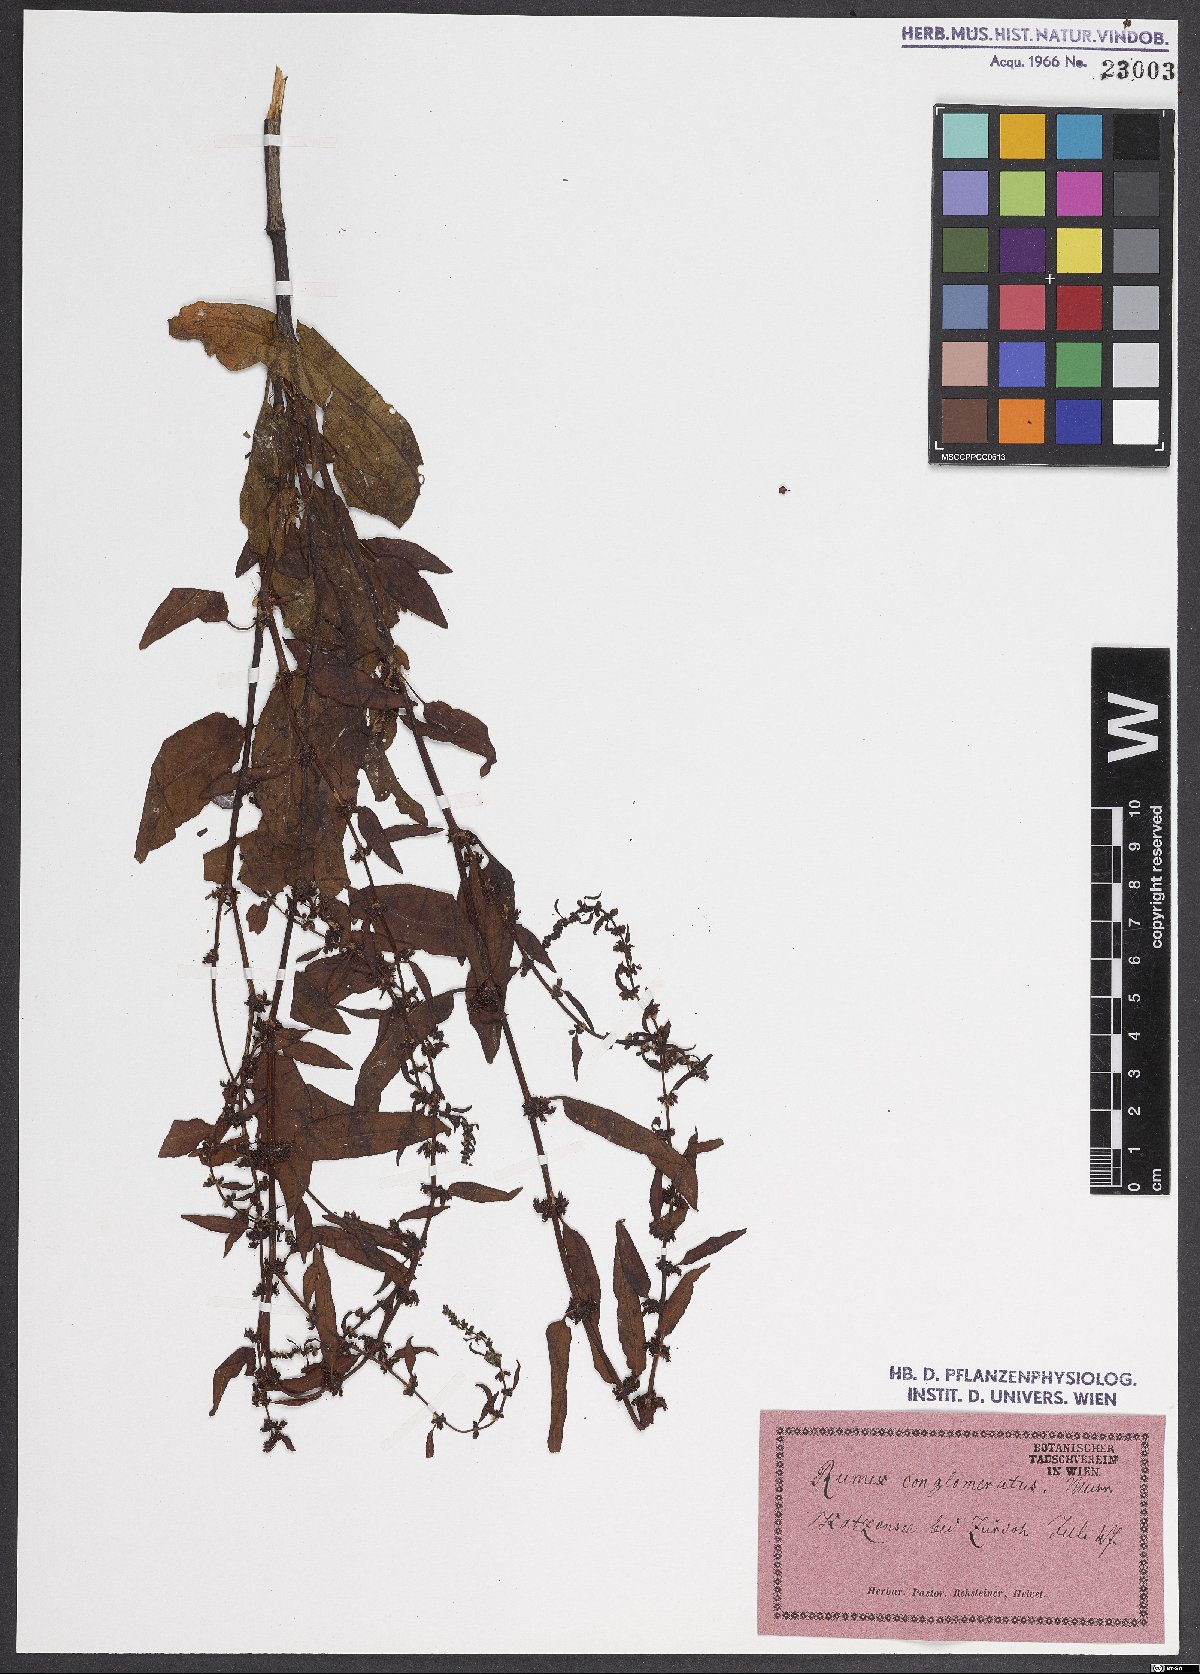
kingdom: Plantae
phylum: Tracheophyta
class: Magnoliopsida
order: Caryophyllales
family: Polygonaceae
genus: Rumex
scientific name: Rumex conglomeratus
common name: Clustered dock
